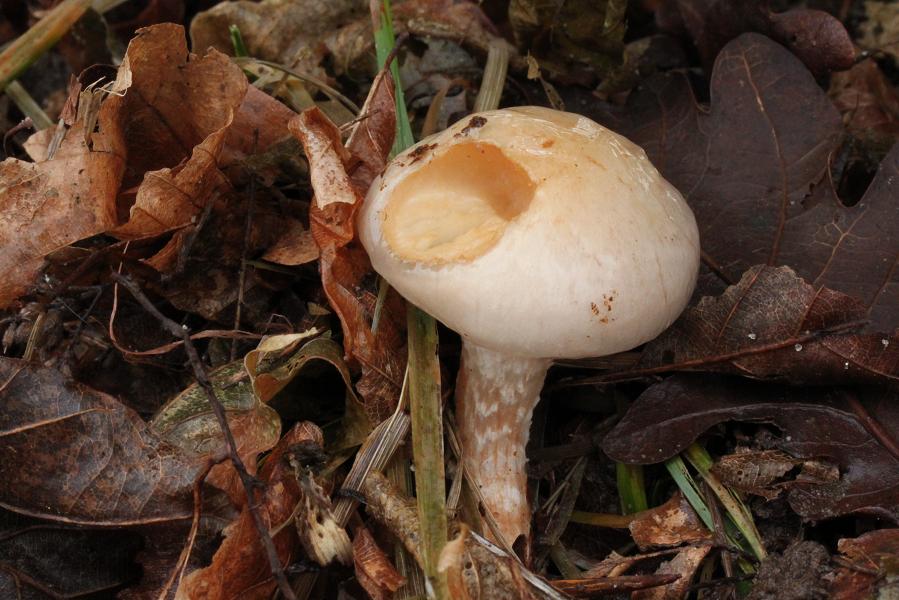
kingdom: Fungi
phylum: Basidiomycota
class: Agaricomycetes
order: Agaricales
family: Strophariaceae
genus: Pholiota
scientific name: Pholiota lenta
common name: løv-skælhat
